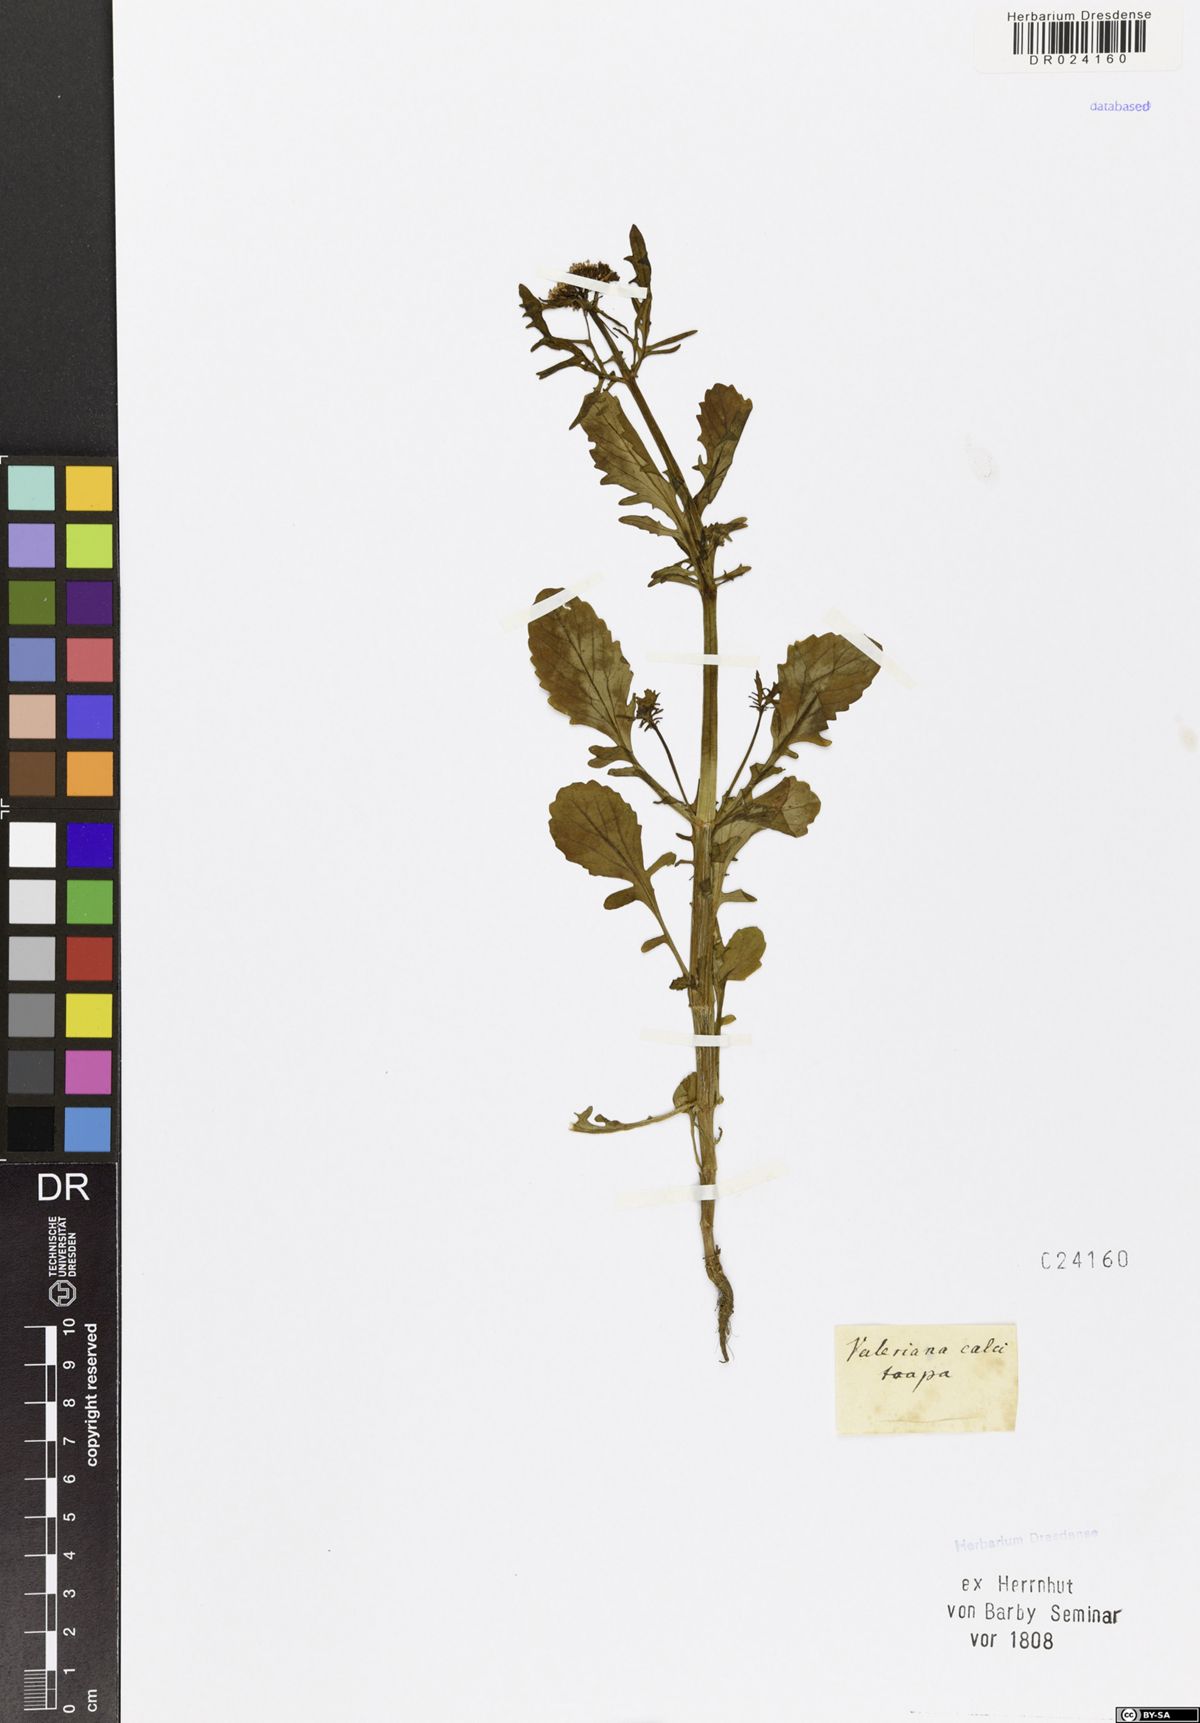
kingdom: Plantae
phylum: Tracheophyta
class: Magnoliopsida
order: Dipsacales
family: Caprifoliaceae
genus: Centranthus
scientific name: Centranthus calcitrapae
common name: Annual valerian
